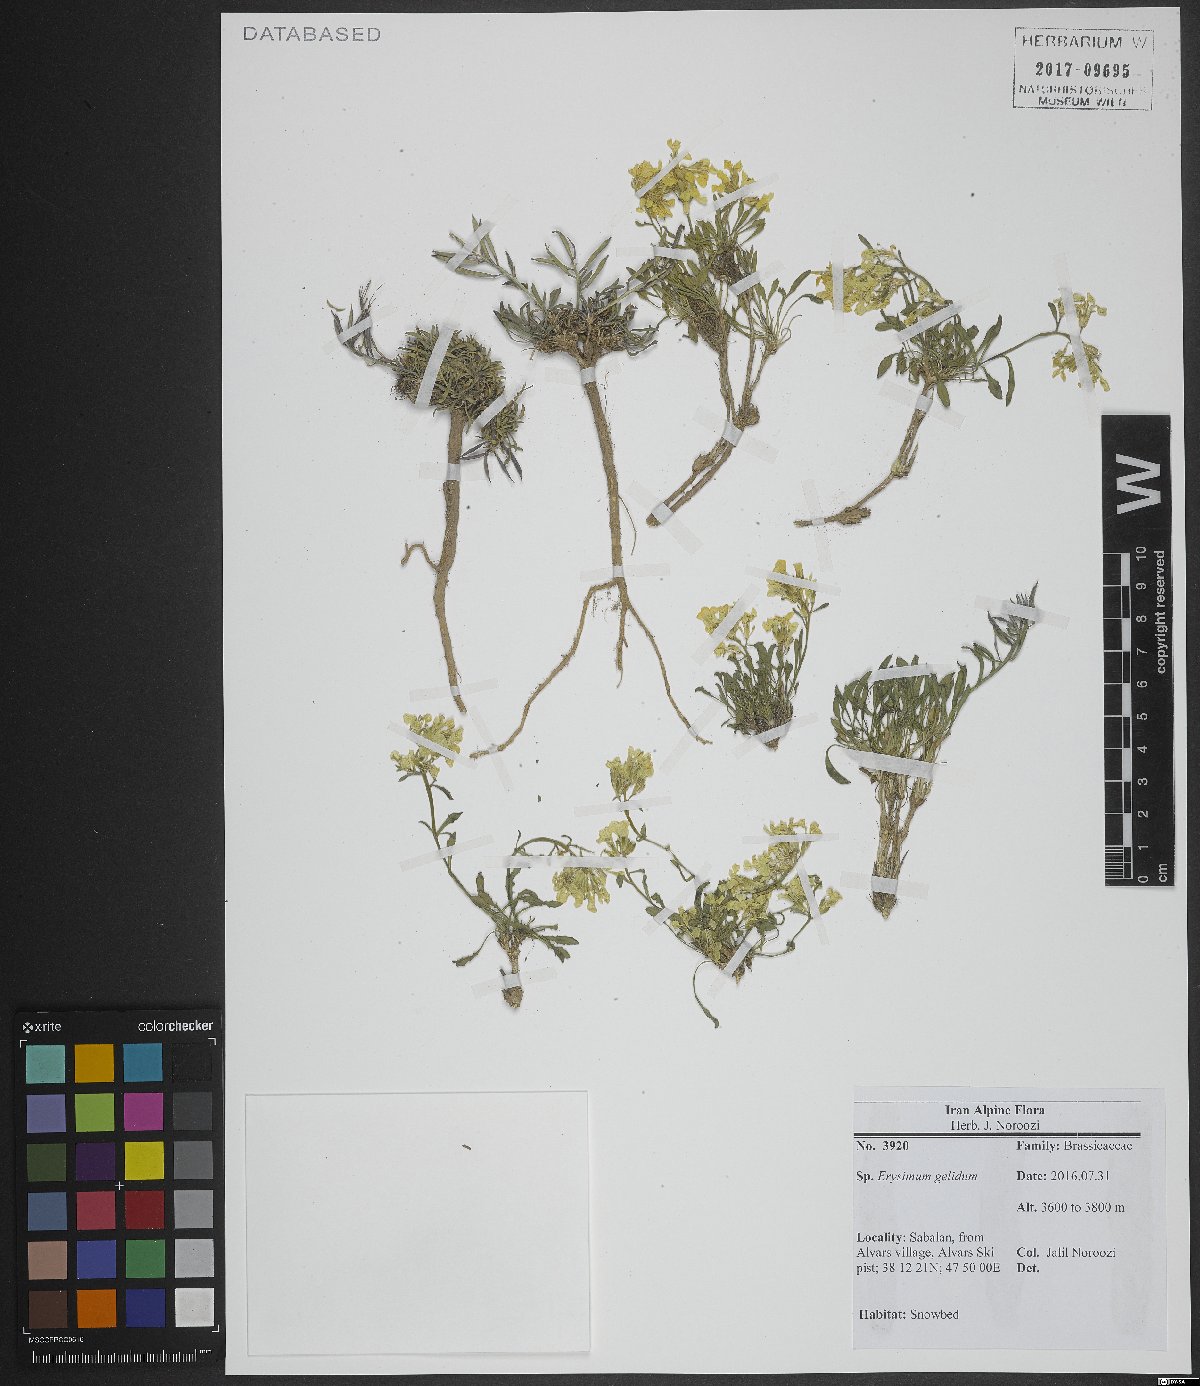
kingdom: Plantae
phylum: Tracheophyta
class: Magnoliopsida
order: Brassicales
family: Brassicaceae
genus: Erysimum
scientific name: Erysimum gelidum
